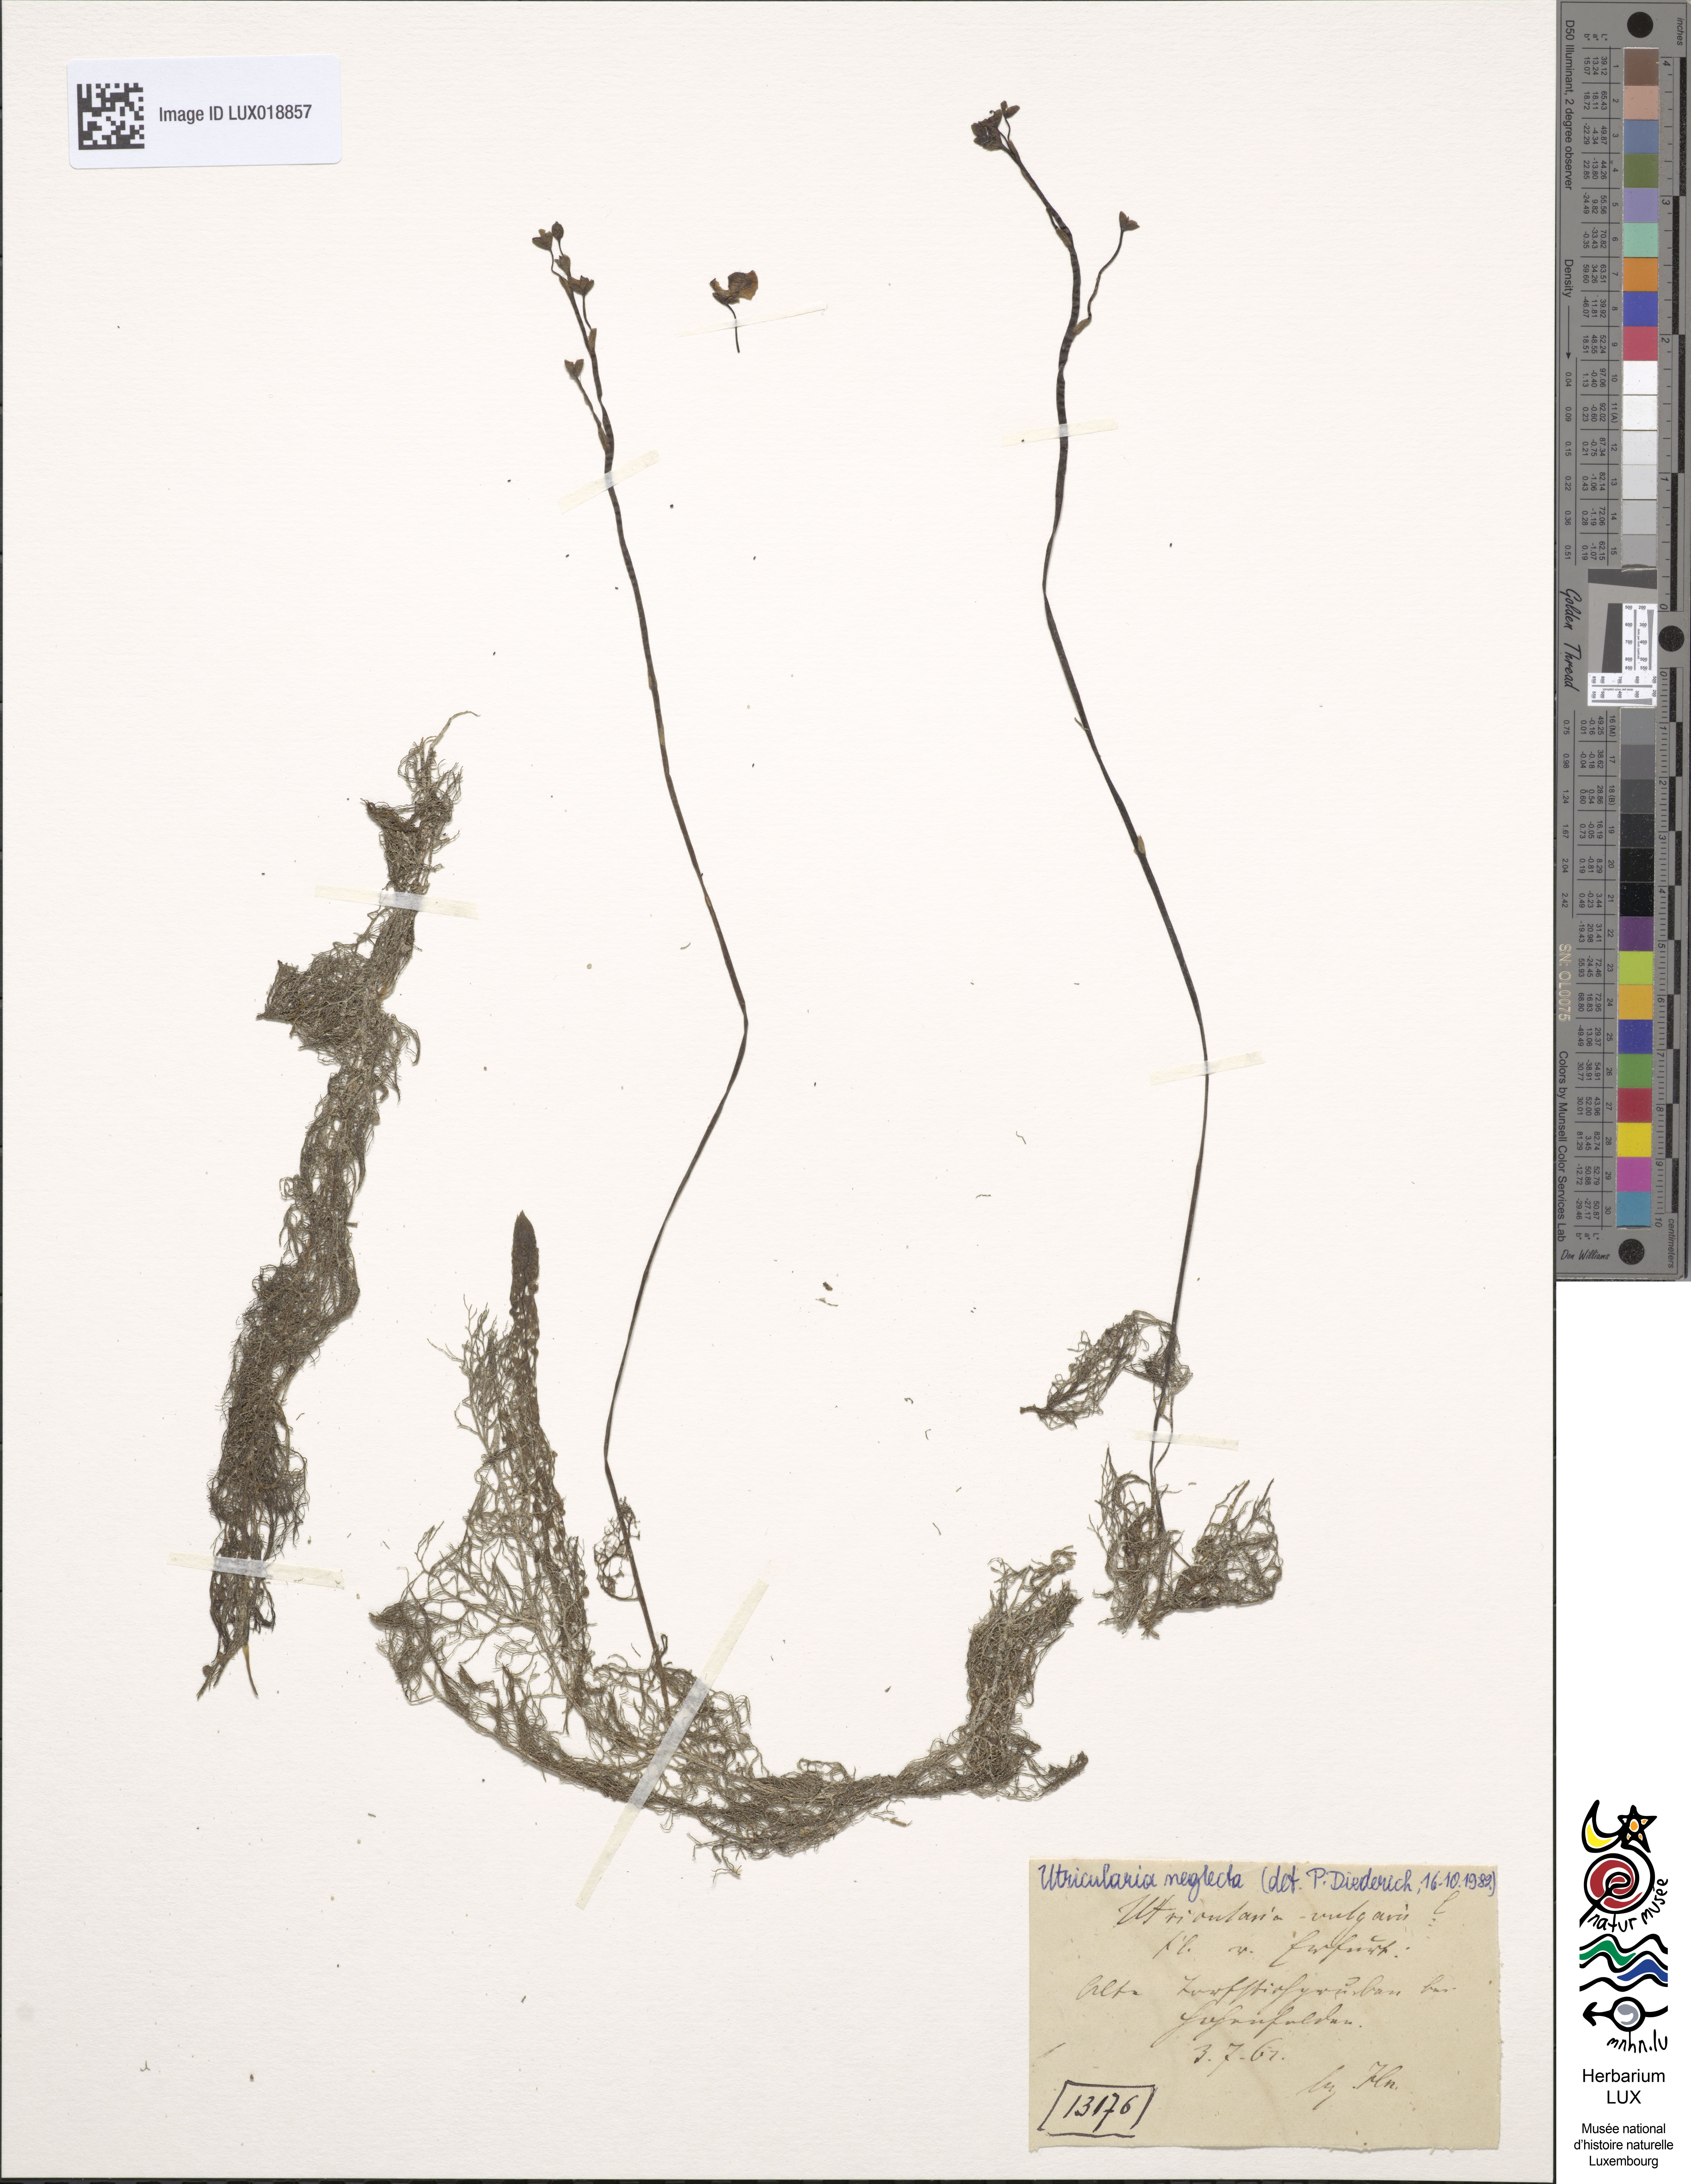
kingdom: Plantae
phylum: Tracheophyta
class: Magnoliopsida
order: Lamiales
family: Lentibulariaceae
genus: Utricularia
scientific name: Utricularia vulgaris
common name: Greater bladderwort
